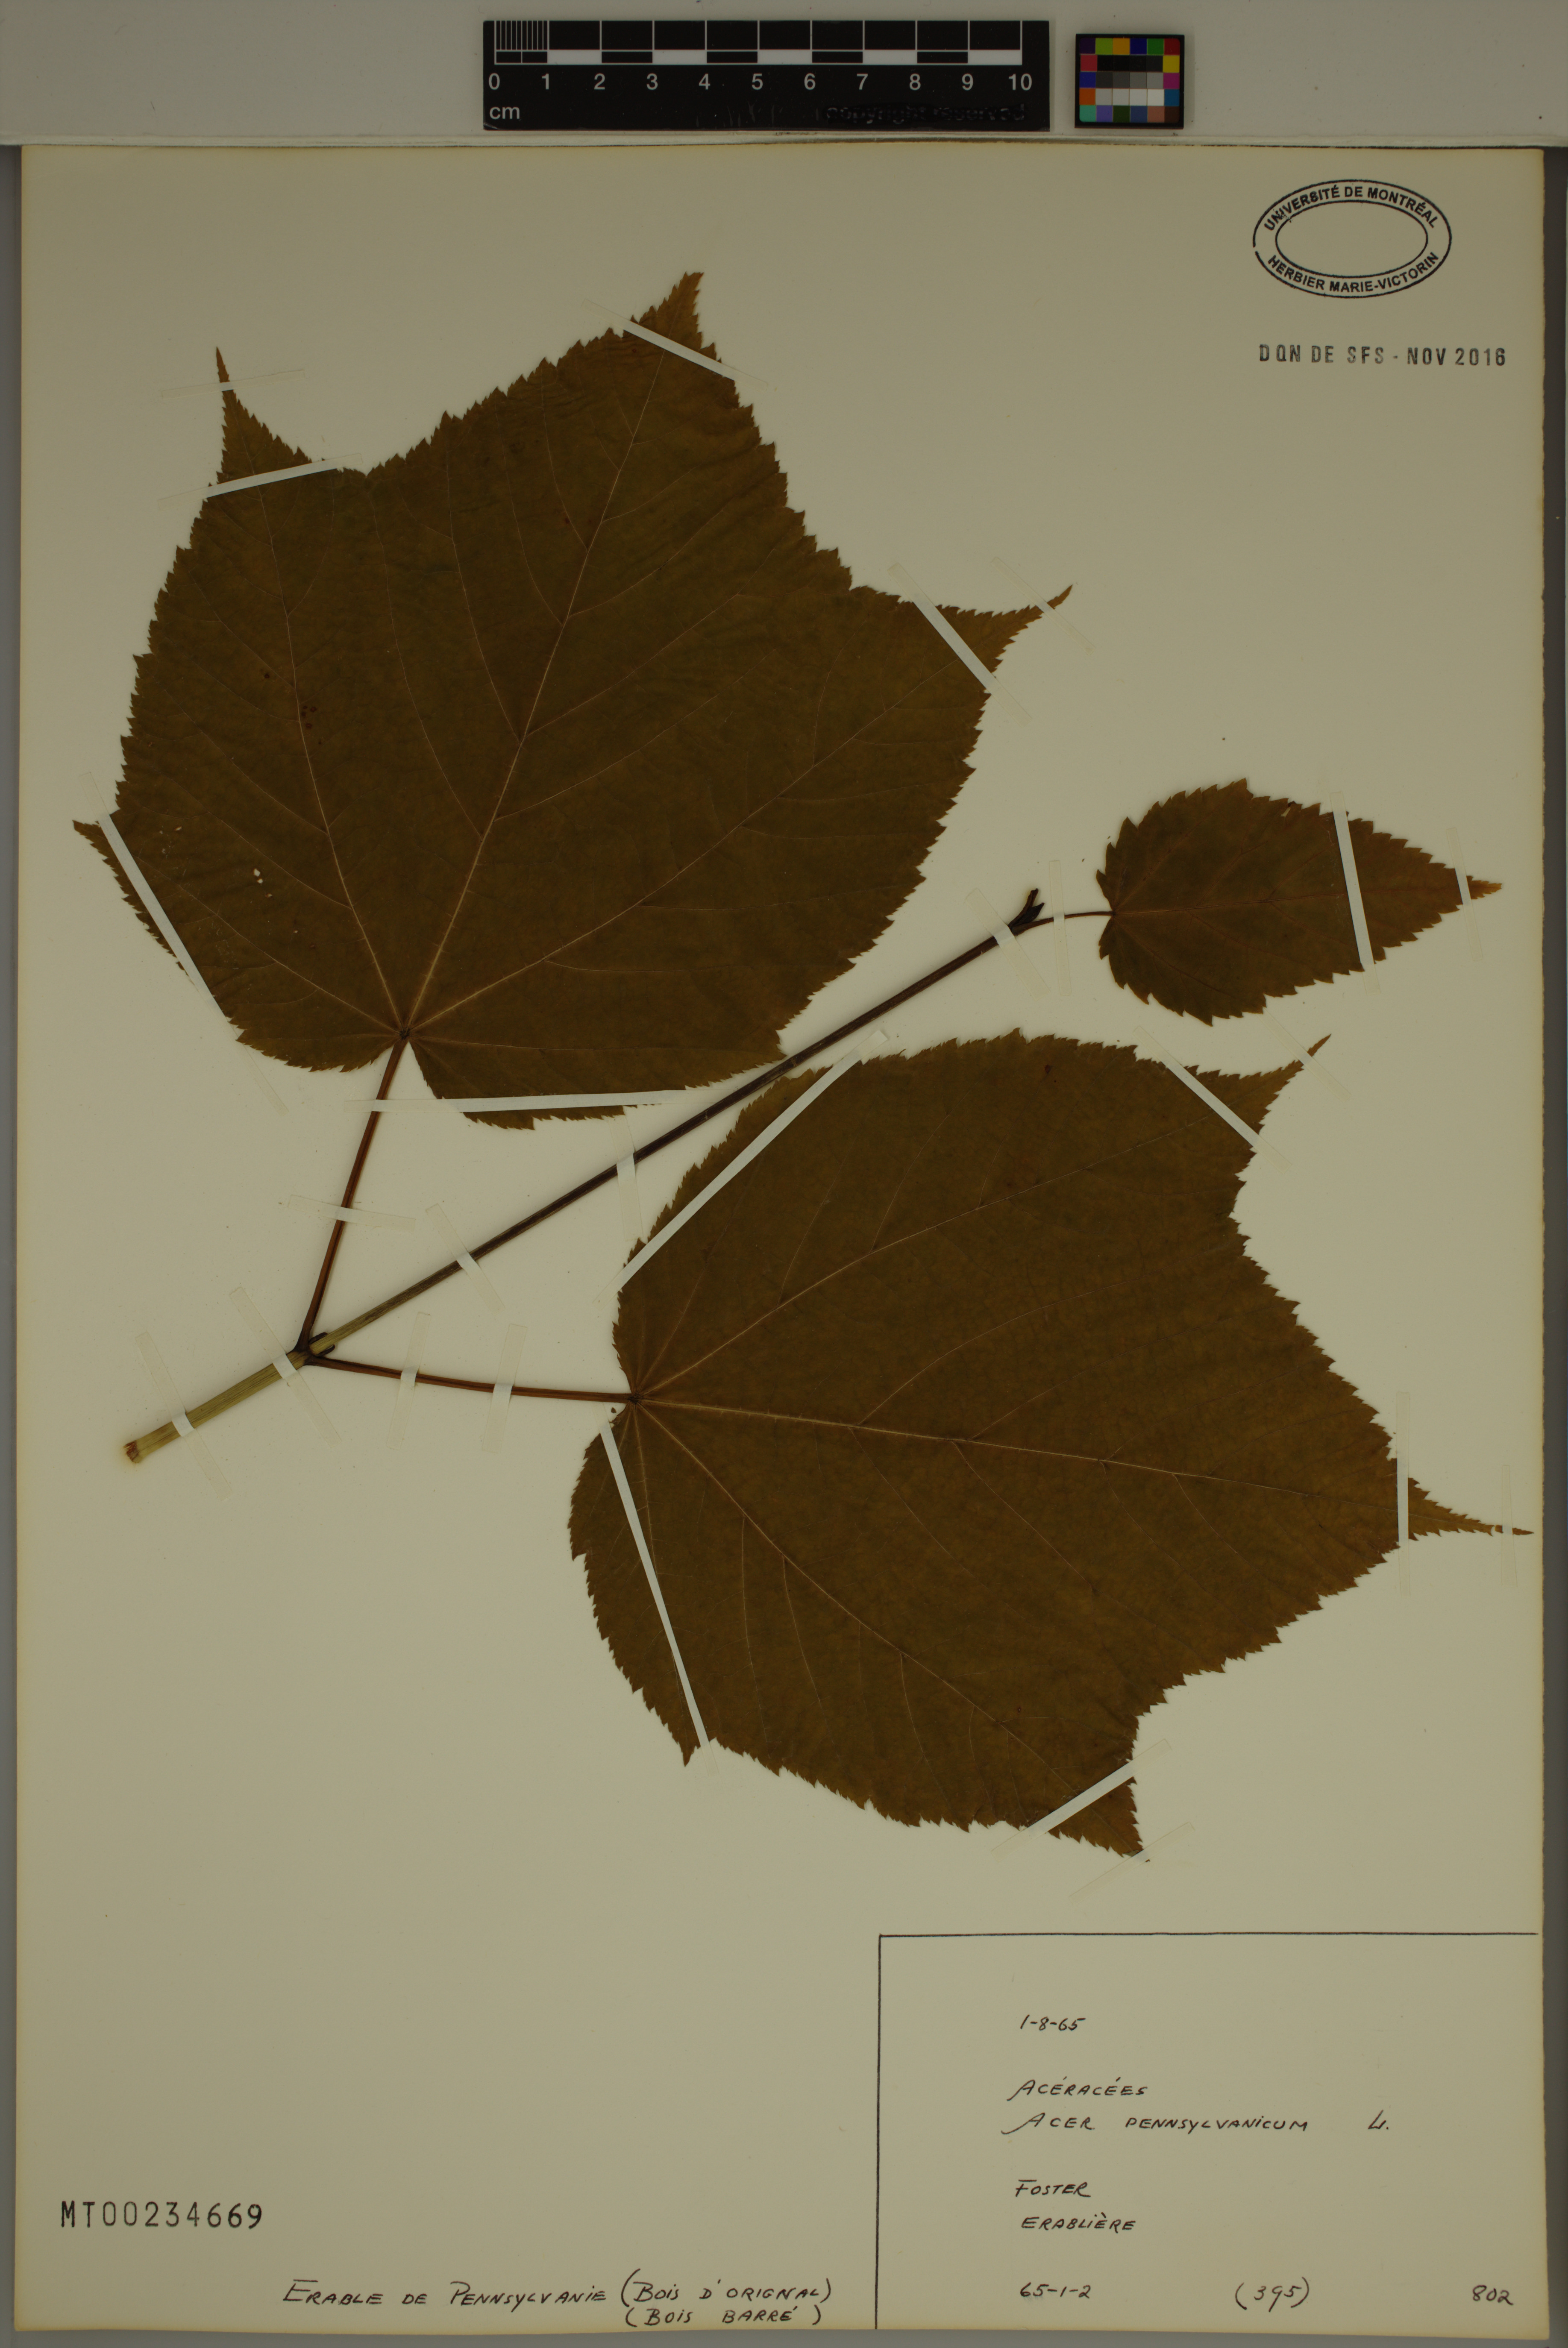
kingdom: Plantae
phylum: Tracheophyta
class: Magnoliopsida
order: Sapindales
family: Sapindaceae
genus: Acer
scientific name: Acer pensylvanicum
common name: Moosewood
